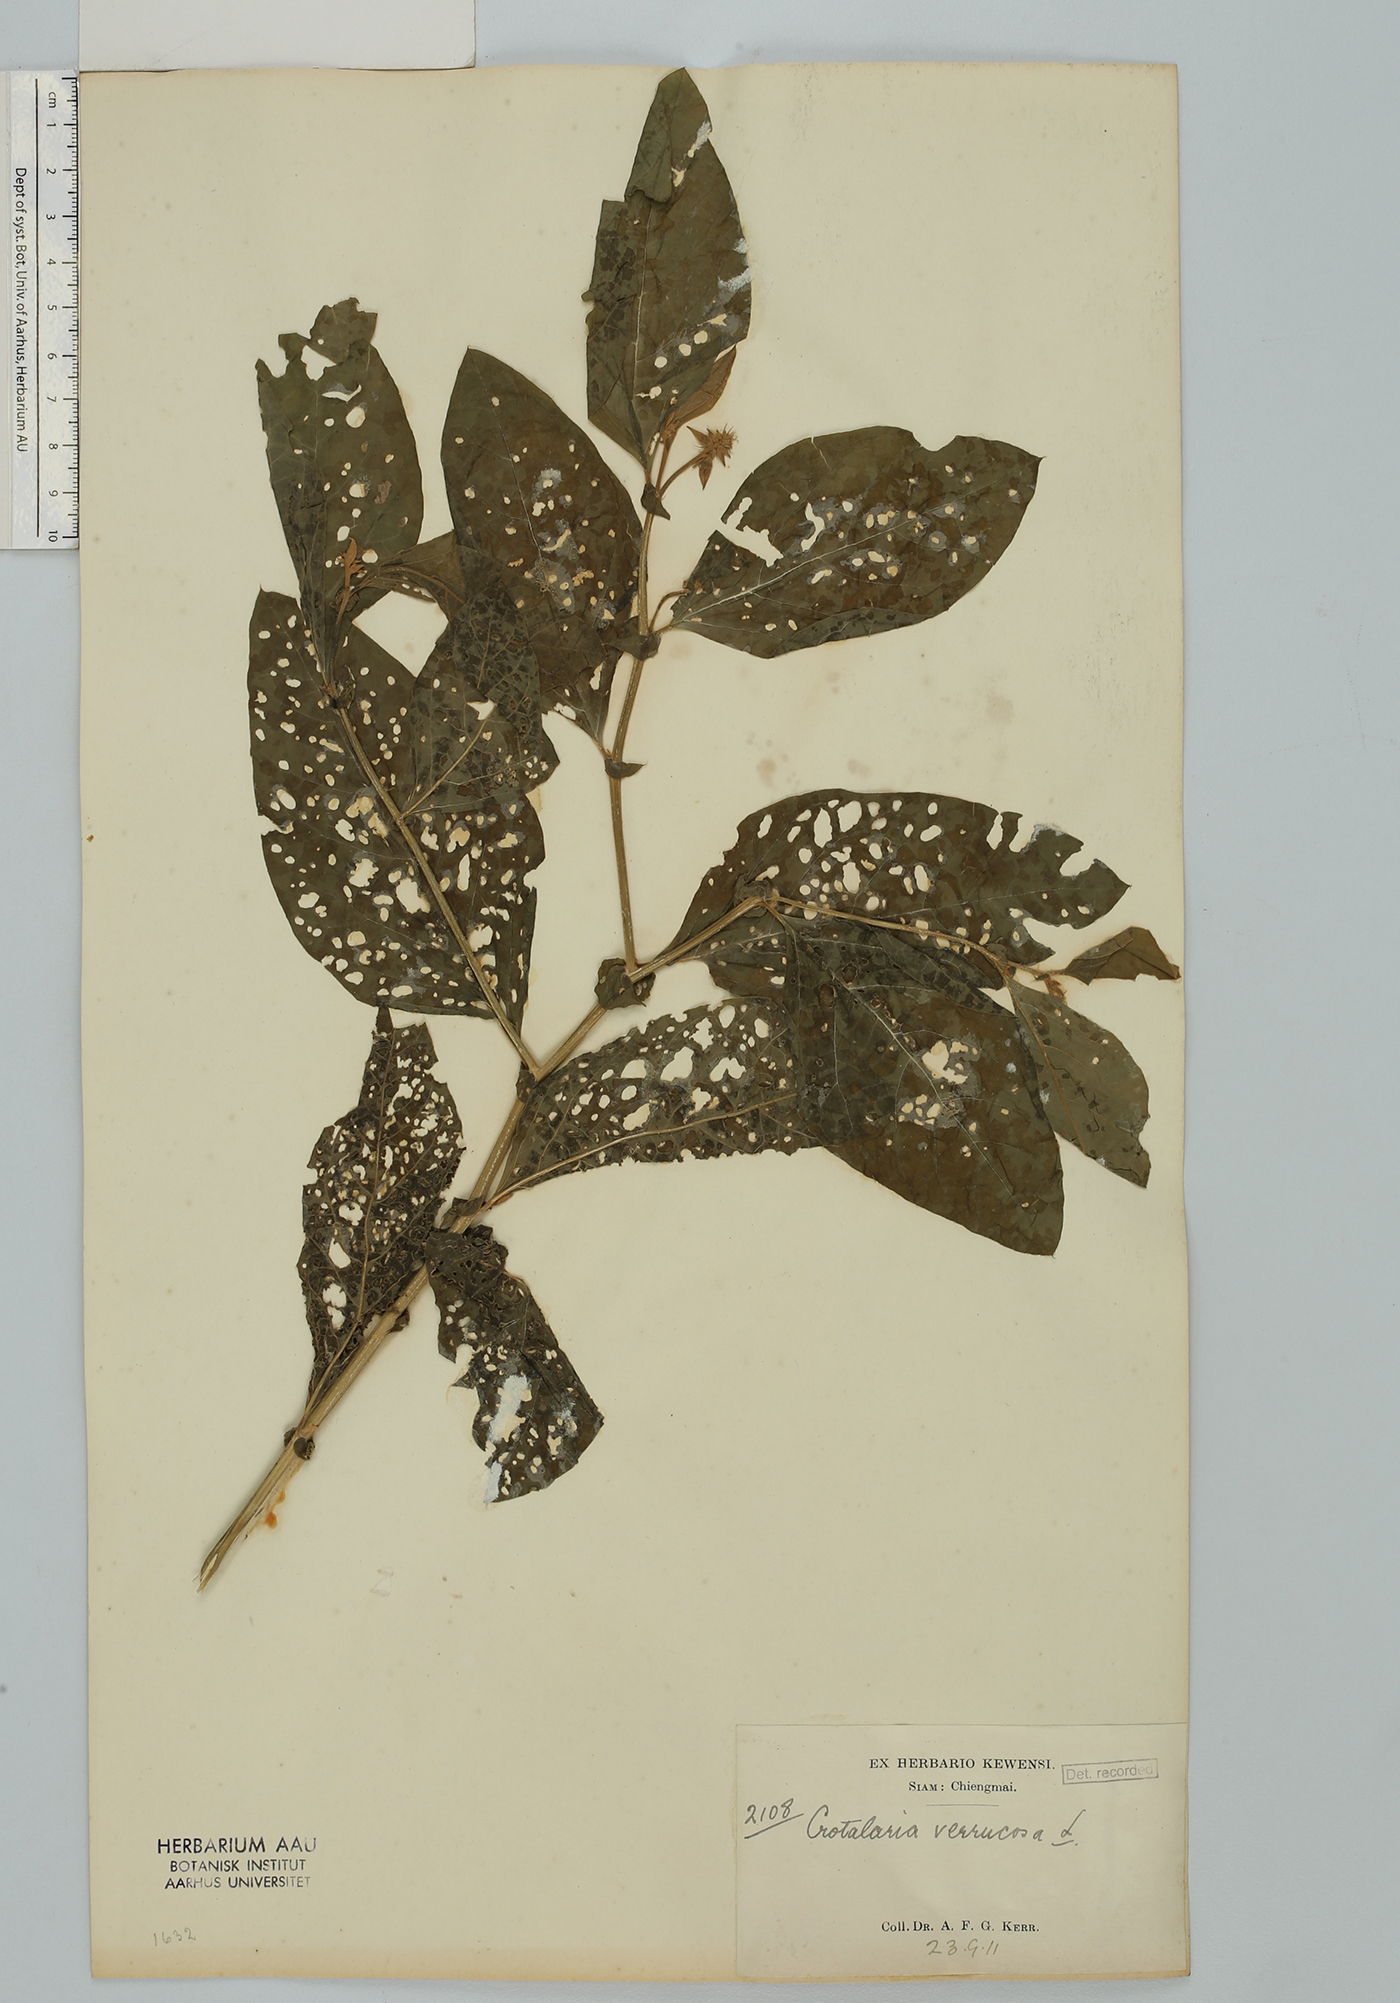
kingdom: Plantae
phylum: Tracheophyta
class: Magnoliopsida
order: Fabales
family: Fabaceae
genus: Crotalaria
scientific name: Crotalaria verrucosa
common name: Blue rattlesnake
